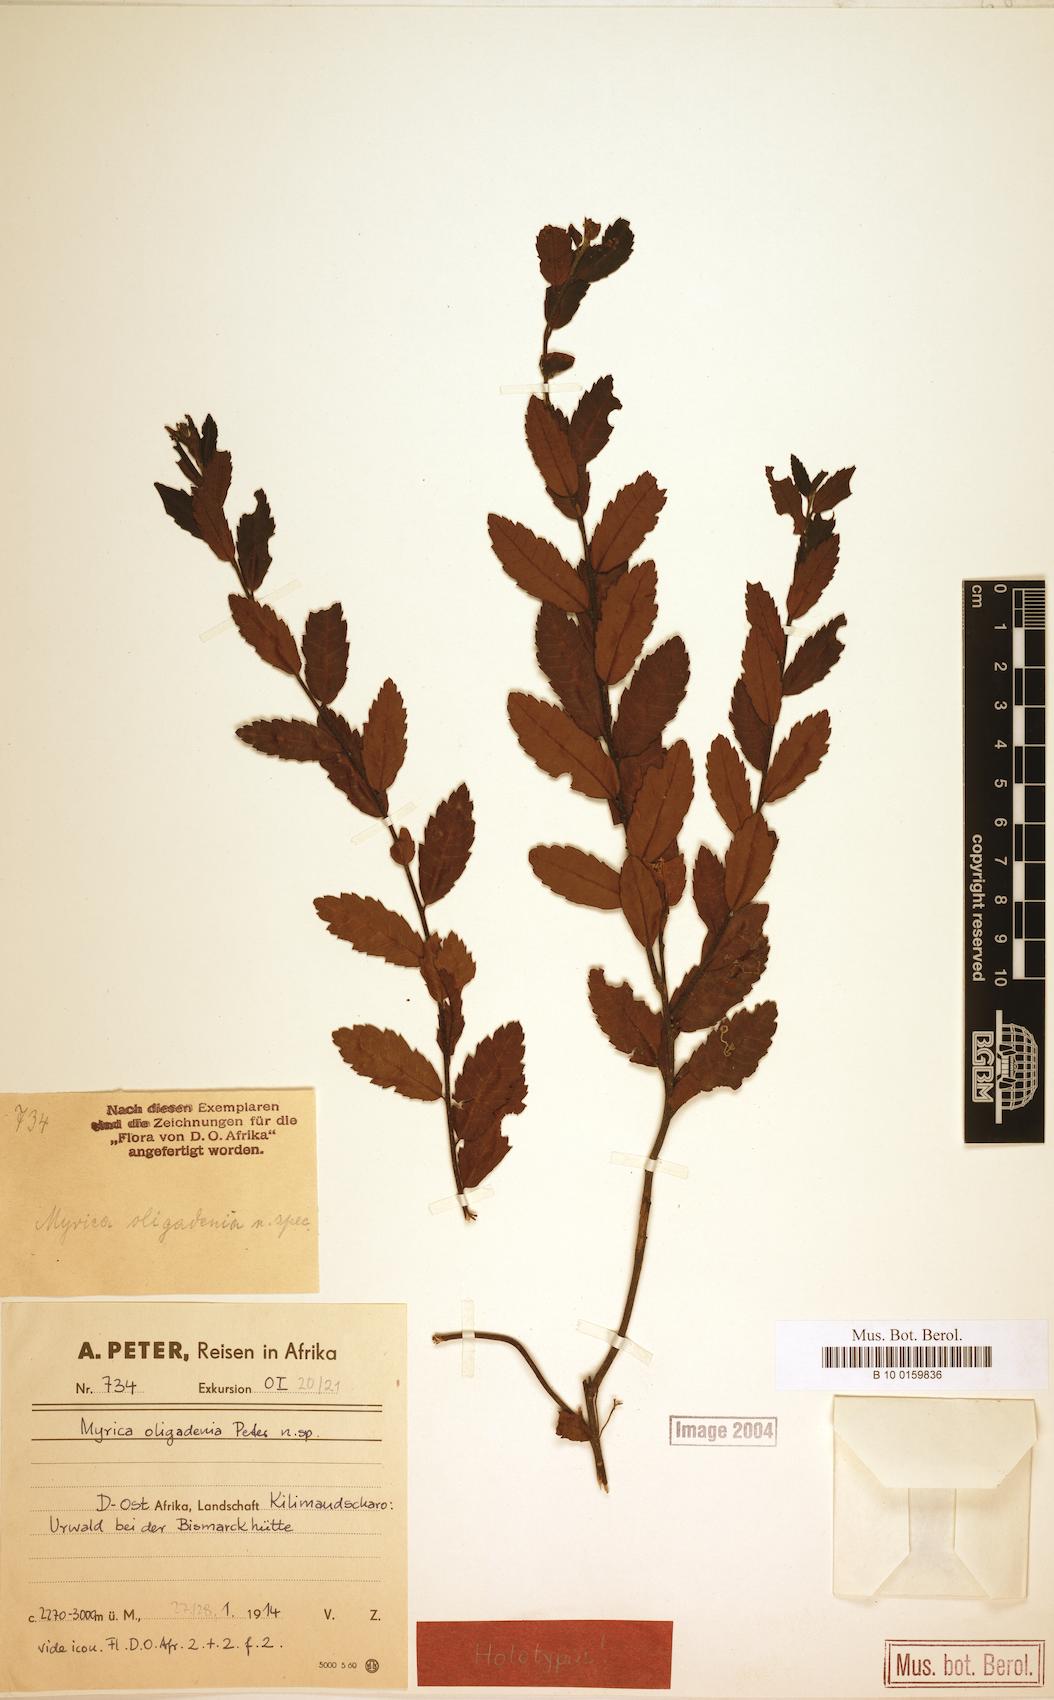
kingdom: Plantae
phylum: Tracheophyta
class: Magnoliopsida
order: Fagales
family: Myricaceae
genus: Morella
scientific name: Morella salicifolia
